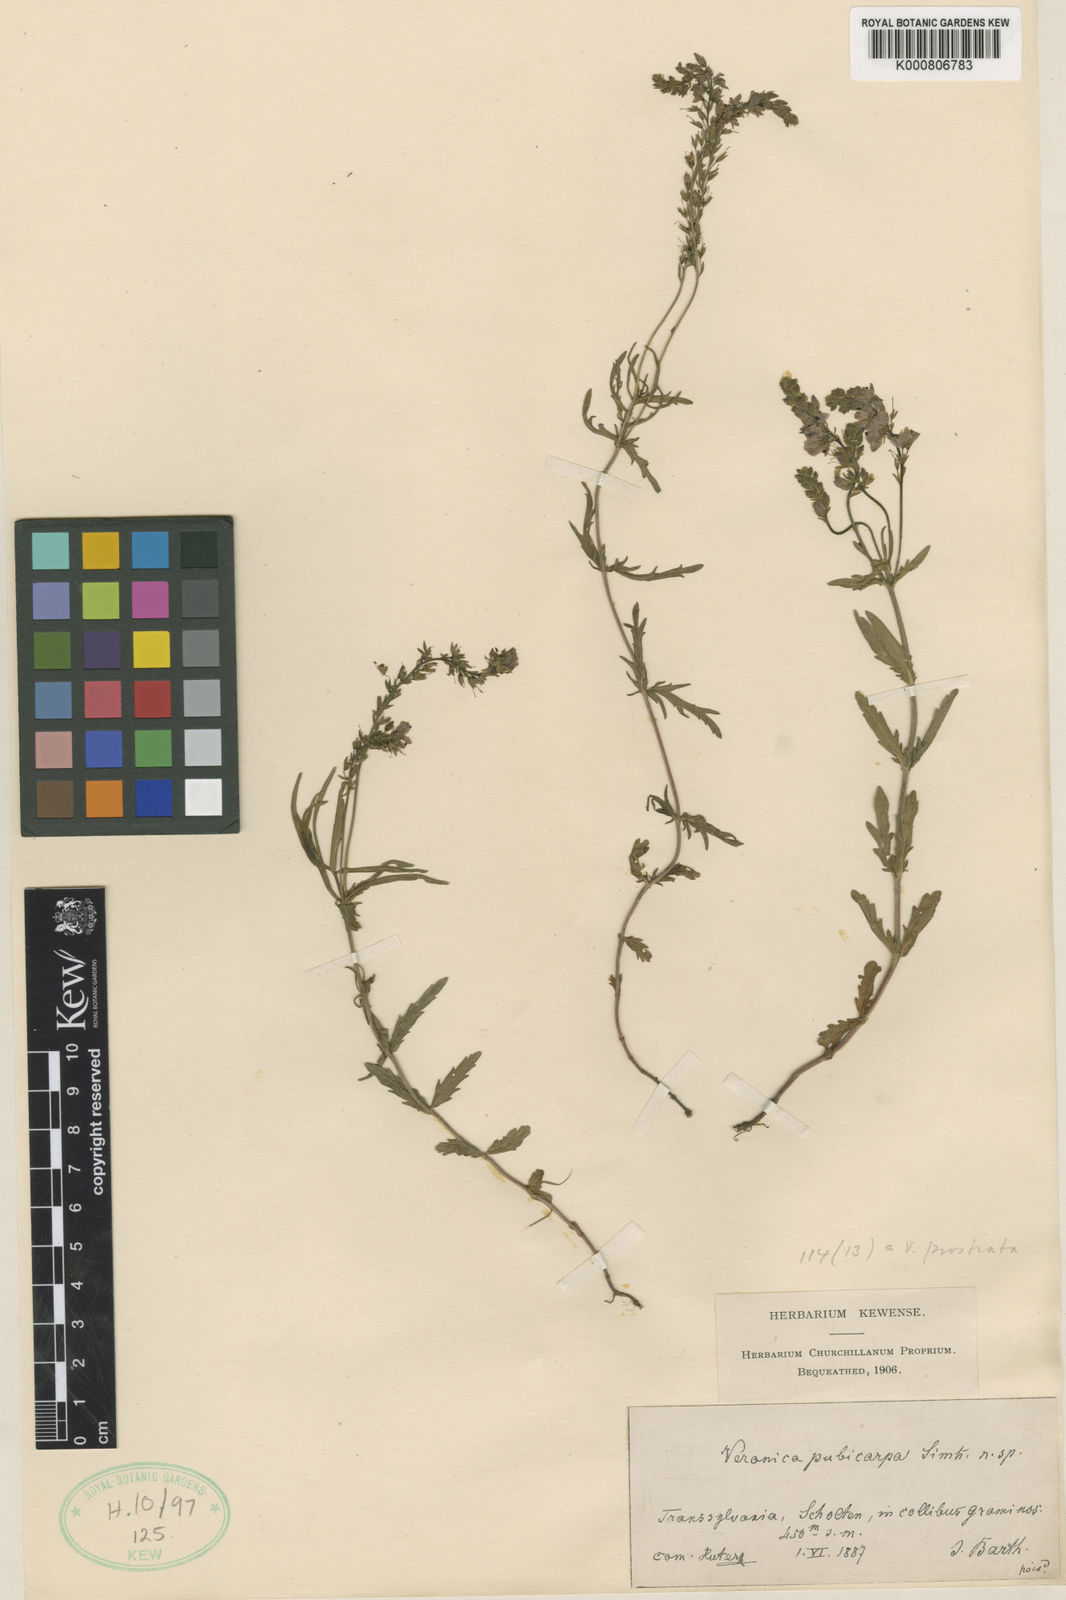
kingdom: Plantae
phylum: Tracheophyta
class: Magnoliopsida
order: Lamiales
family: Plantaginaceae
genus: Veronica
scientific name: Veronica prostrata
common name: Prostrate speedwell
